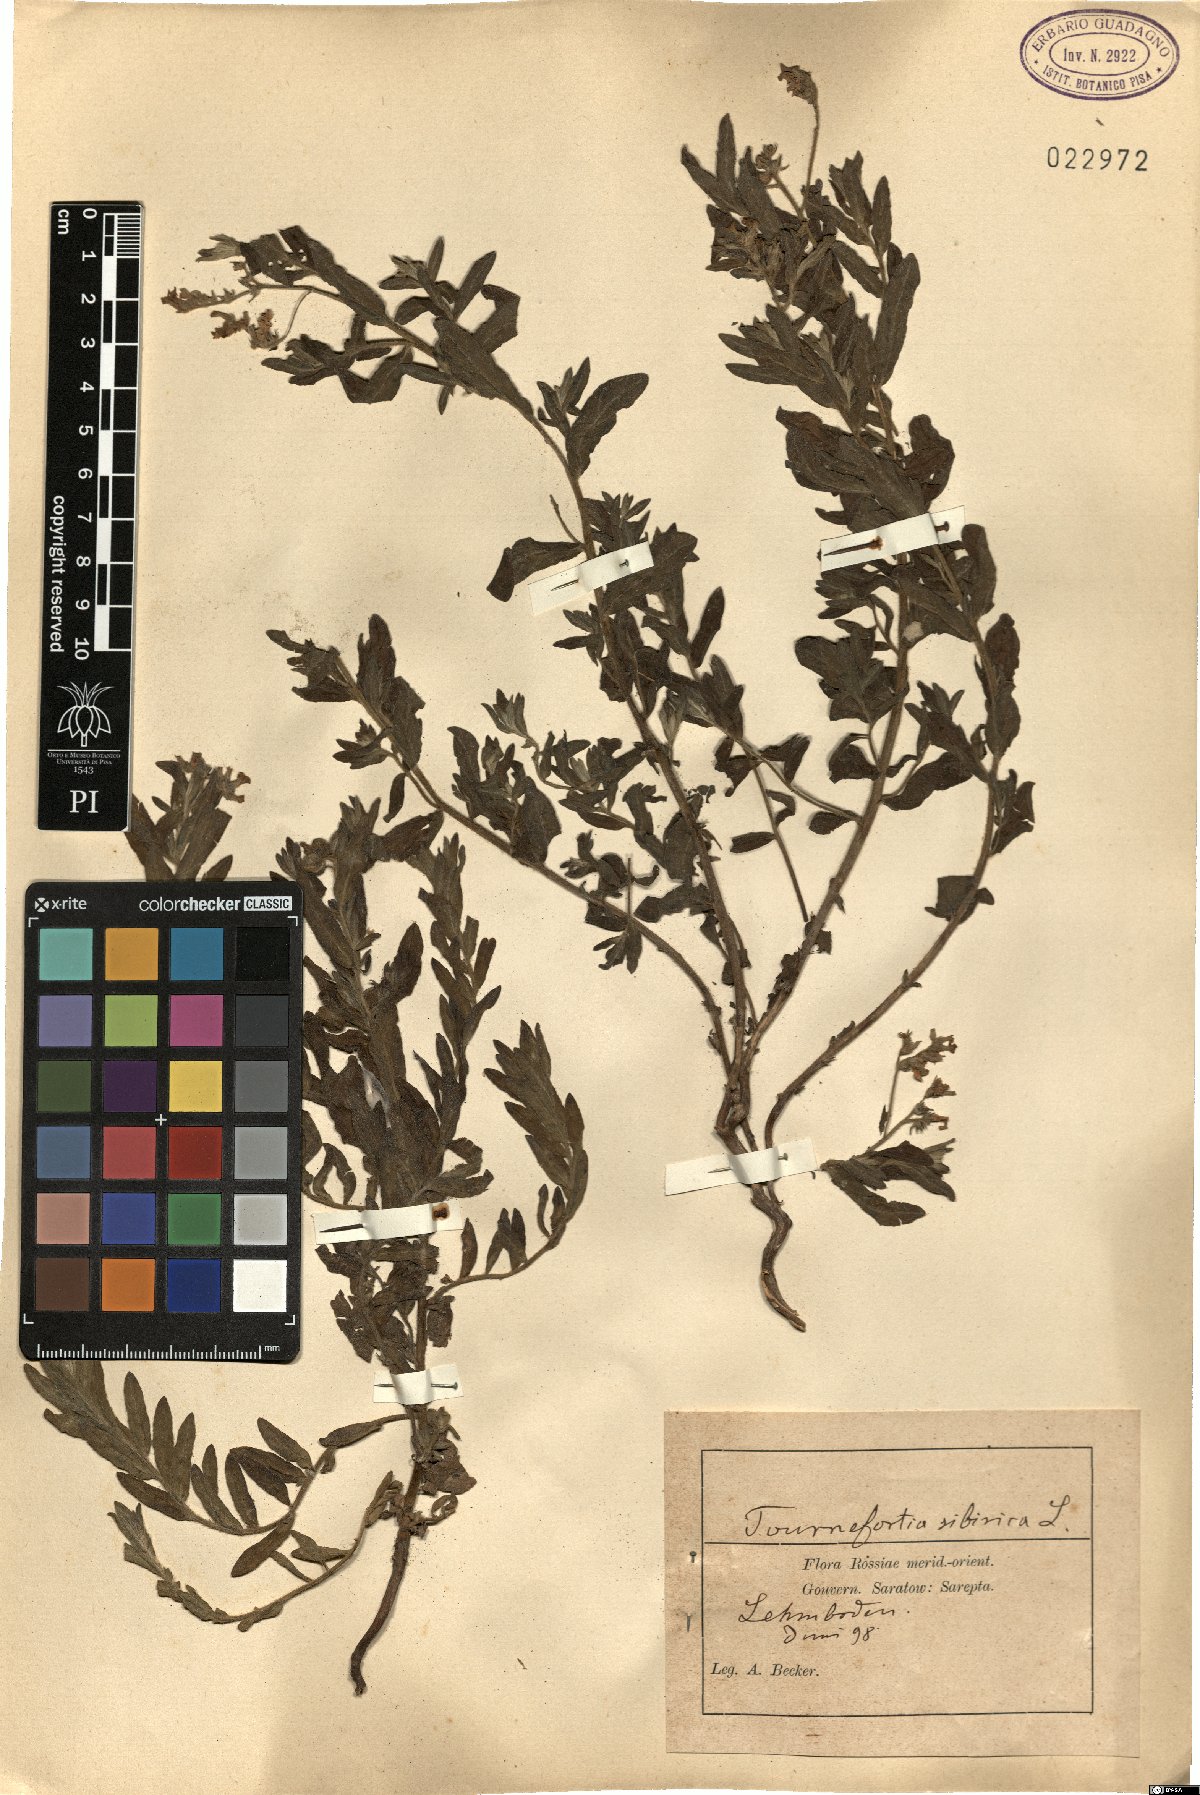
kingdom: Plantae
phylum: Tracheophyta
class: Magnoliopsida
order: Boraginales
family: Heliotropiaceae
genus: Tournefortia
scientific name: Tournefortia sibirica
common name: Siberian sea rosemary
